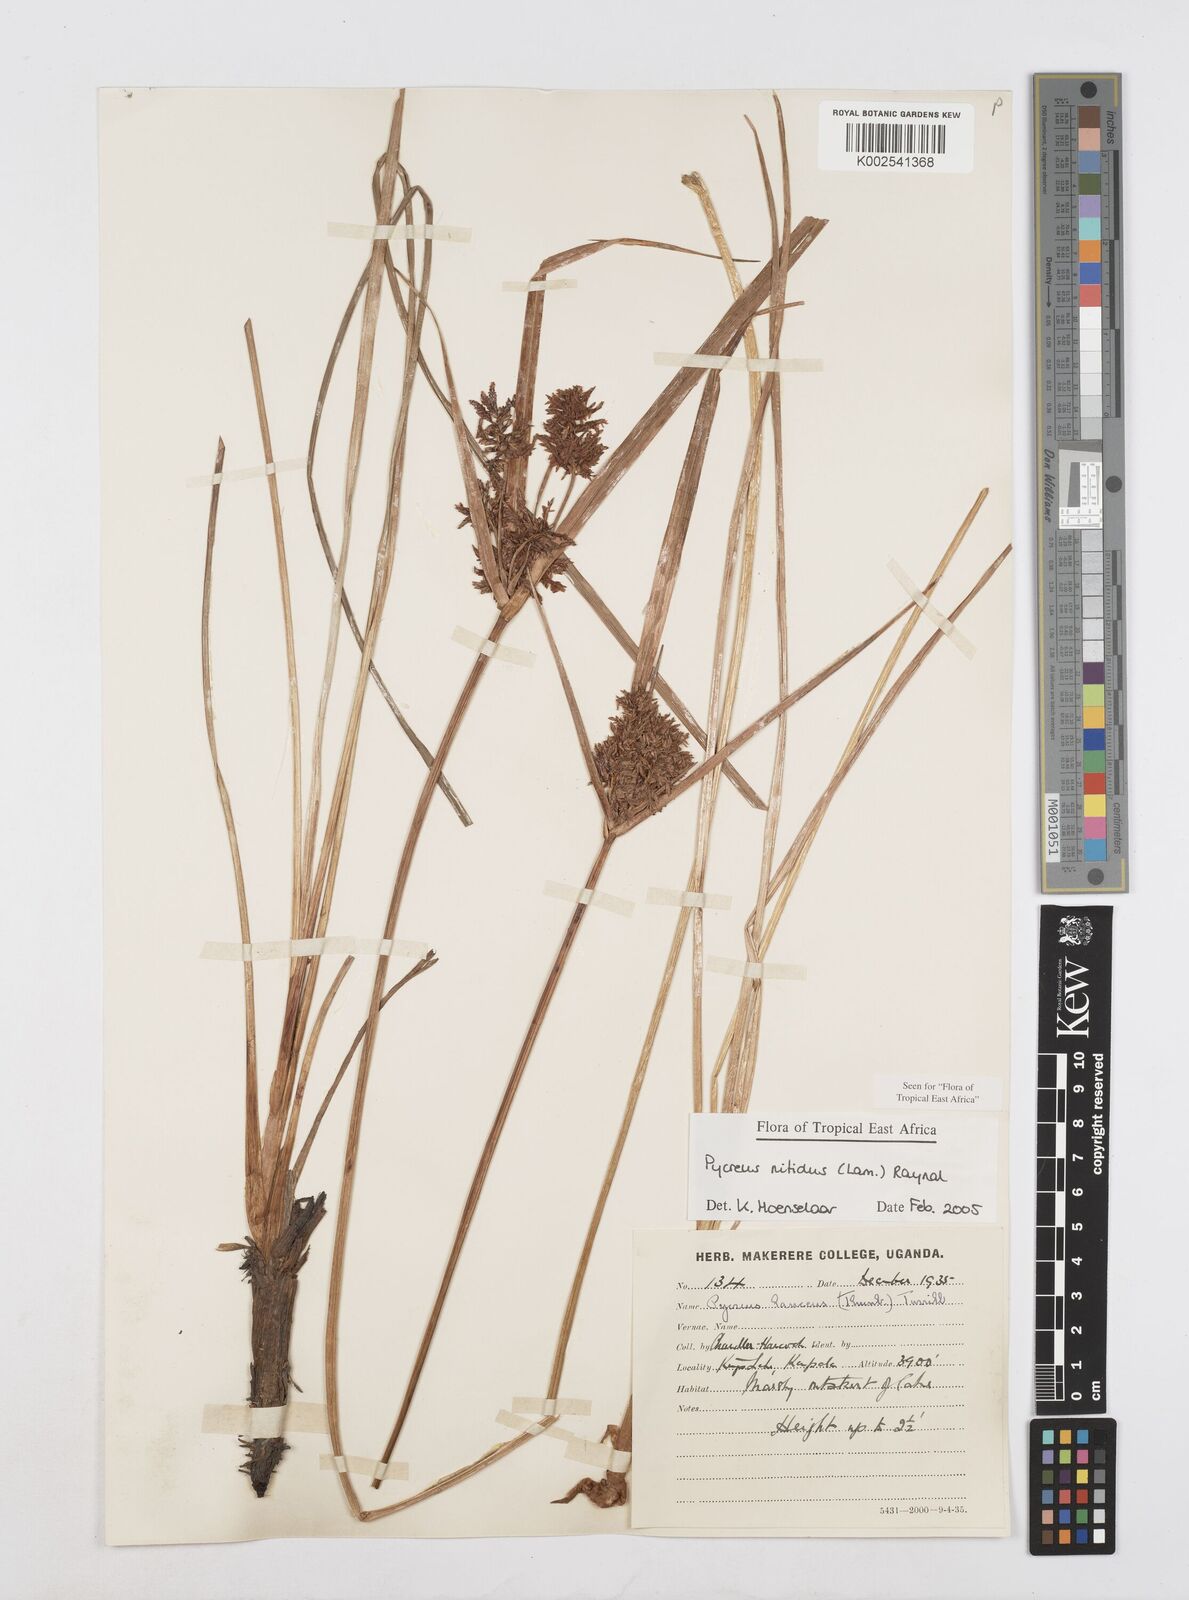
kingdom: Plantae
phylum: Tracheophyta
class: Liliopsida
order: Poales
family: Cyperaceae
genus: Cyperus
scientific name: Cyperus nitidus
